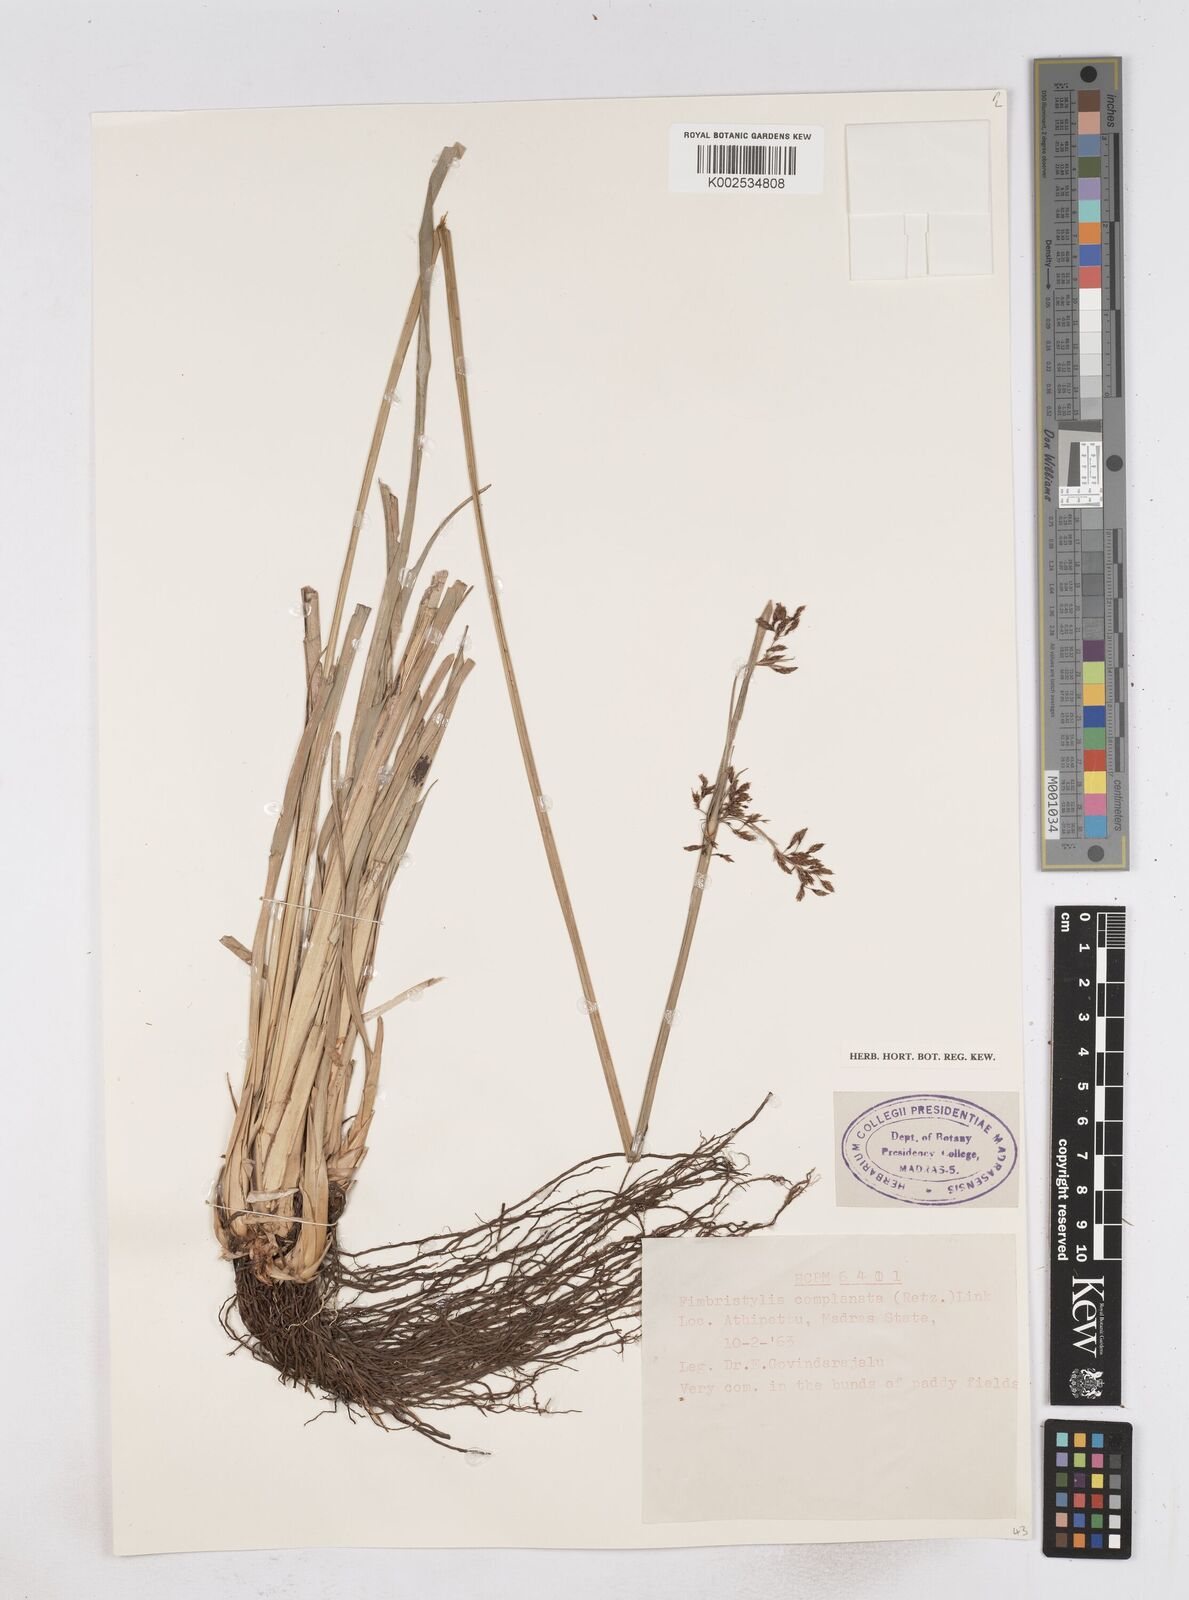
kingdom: Plantae
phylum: Tracheophyta
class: Liliopsida
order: Poales
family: Cyperaceae
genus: Fimbristylis
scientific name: Fimbristylis complanata
